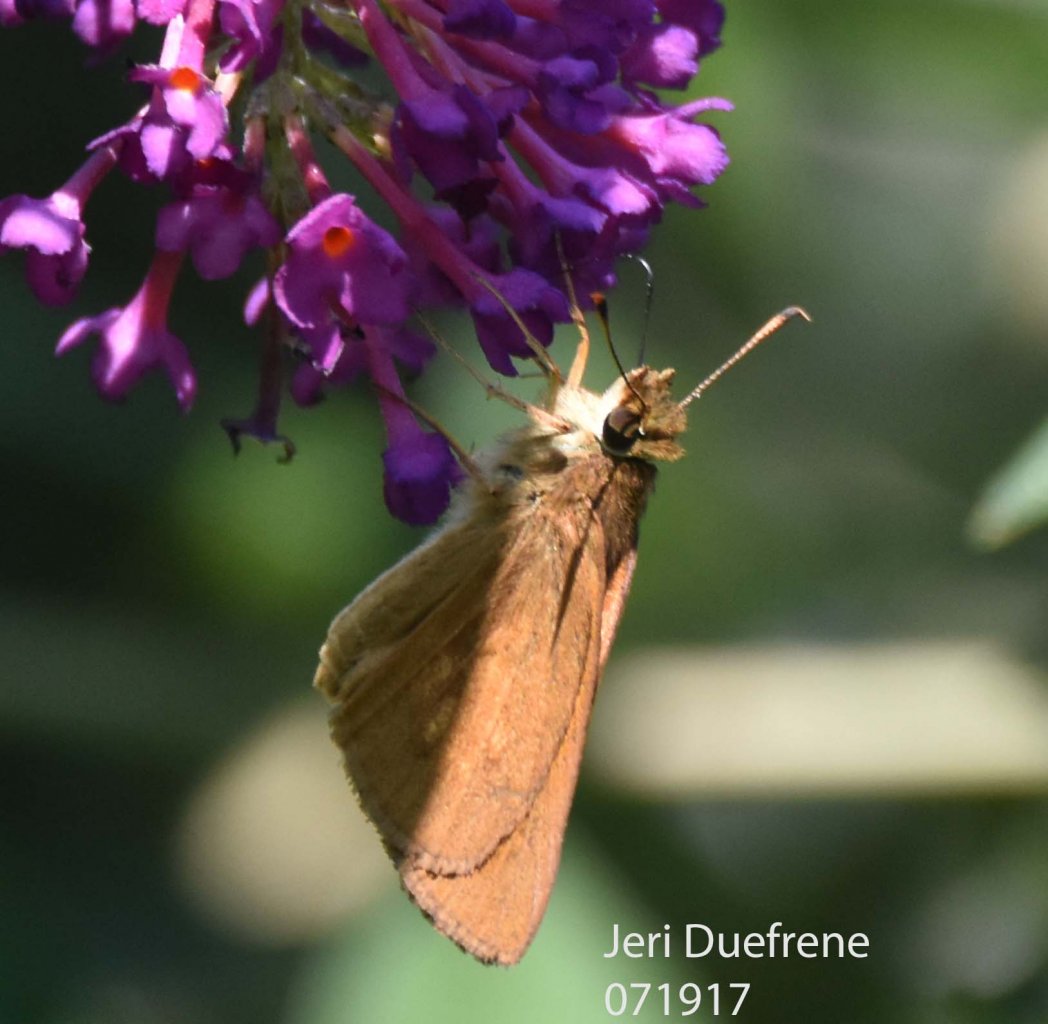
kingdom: Animalia
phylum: Arthropoda
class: Insecta
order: Lepidoptera
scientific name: Lepidoptera
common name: Butterflies
